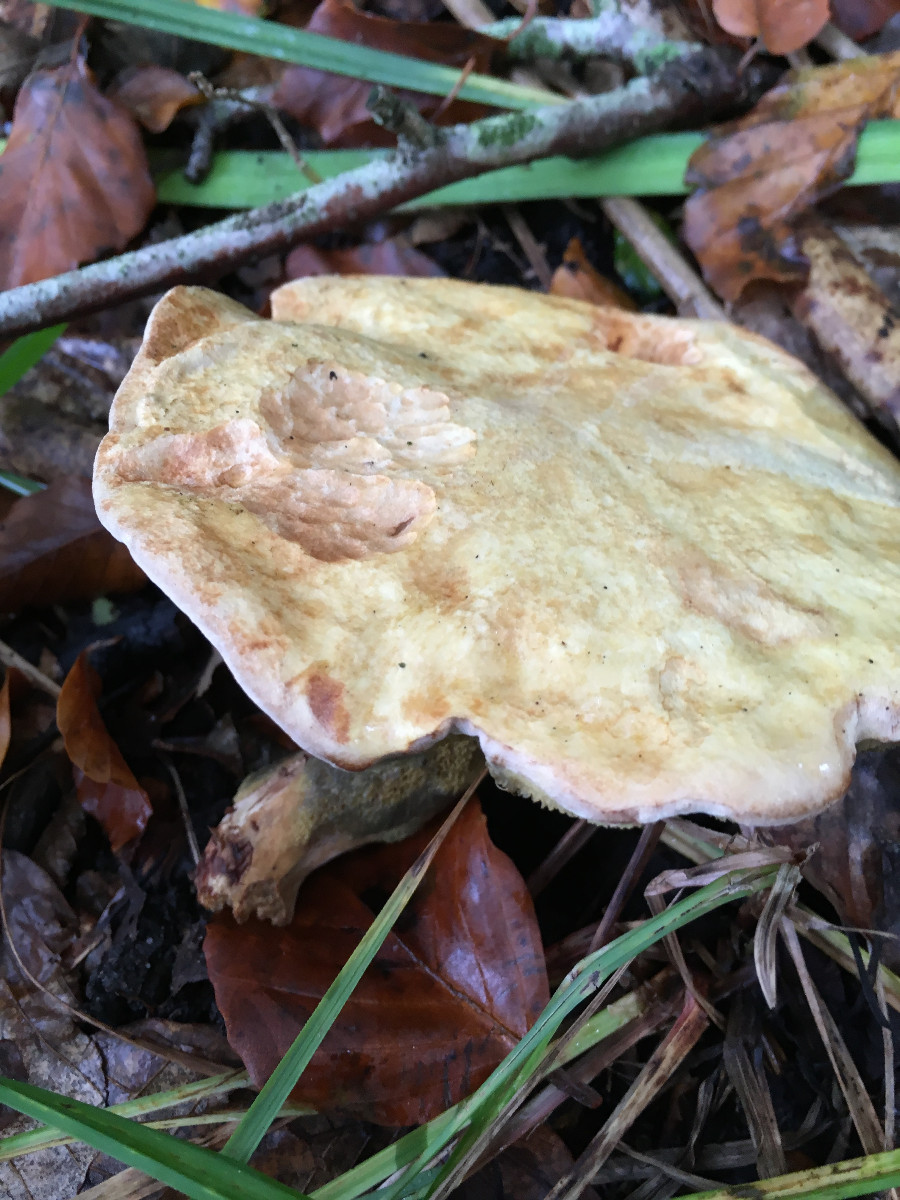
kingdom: Fungi
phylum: Basidiomycota
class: Agaricomycetes
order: Boletales
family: Paxillaceae
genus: Gyrodon
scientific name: Gyrodon lividus
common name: ellerørhat
